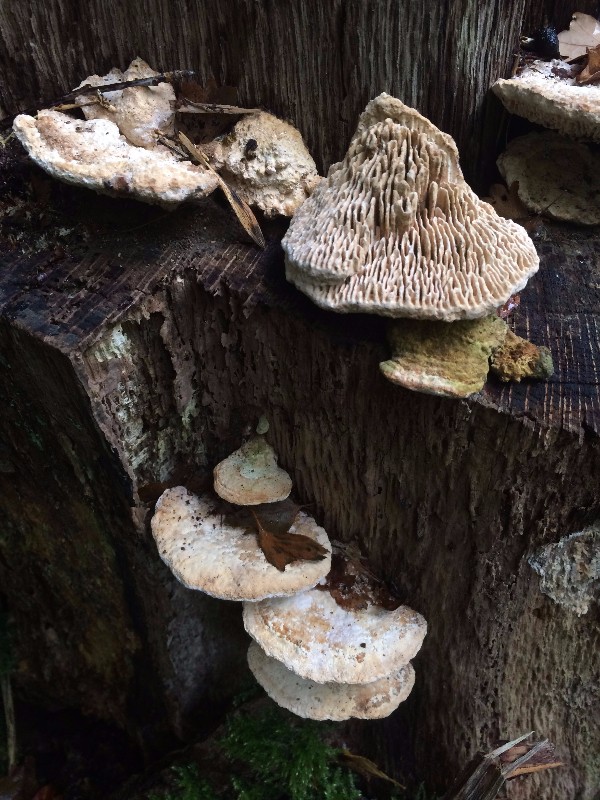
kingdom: Fungi
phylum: Basidiomycota
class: Agaricomycetes
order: Polyporales
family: Fomitopsidaceae
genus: Daedalea
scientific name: Daedalea quercina
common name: ege-labyrintsvamp
